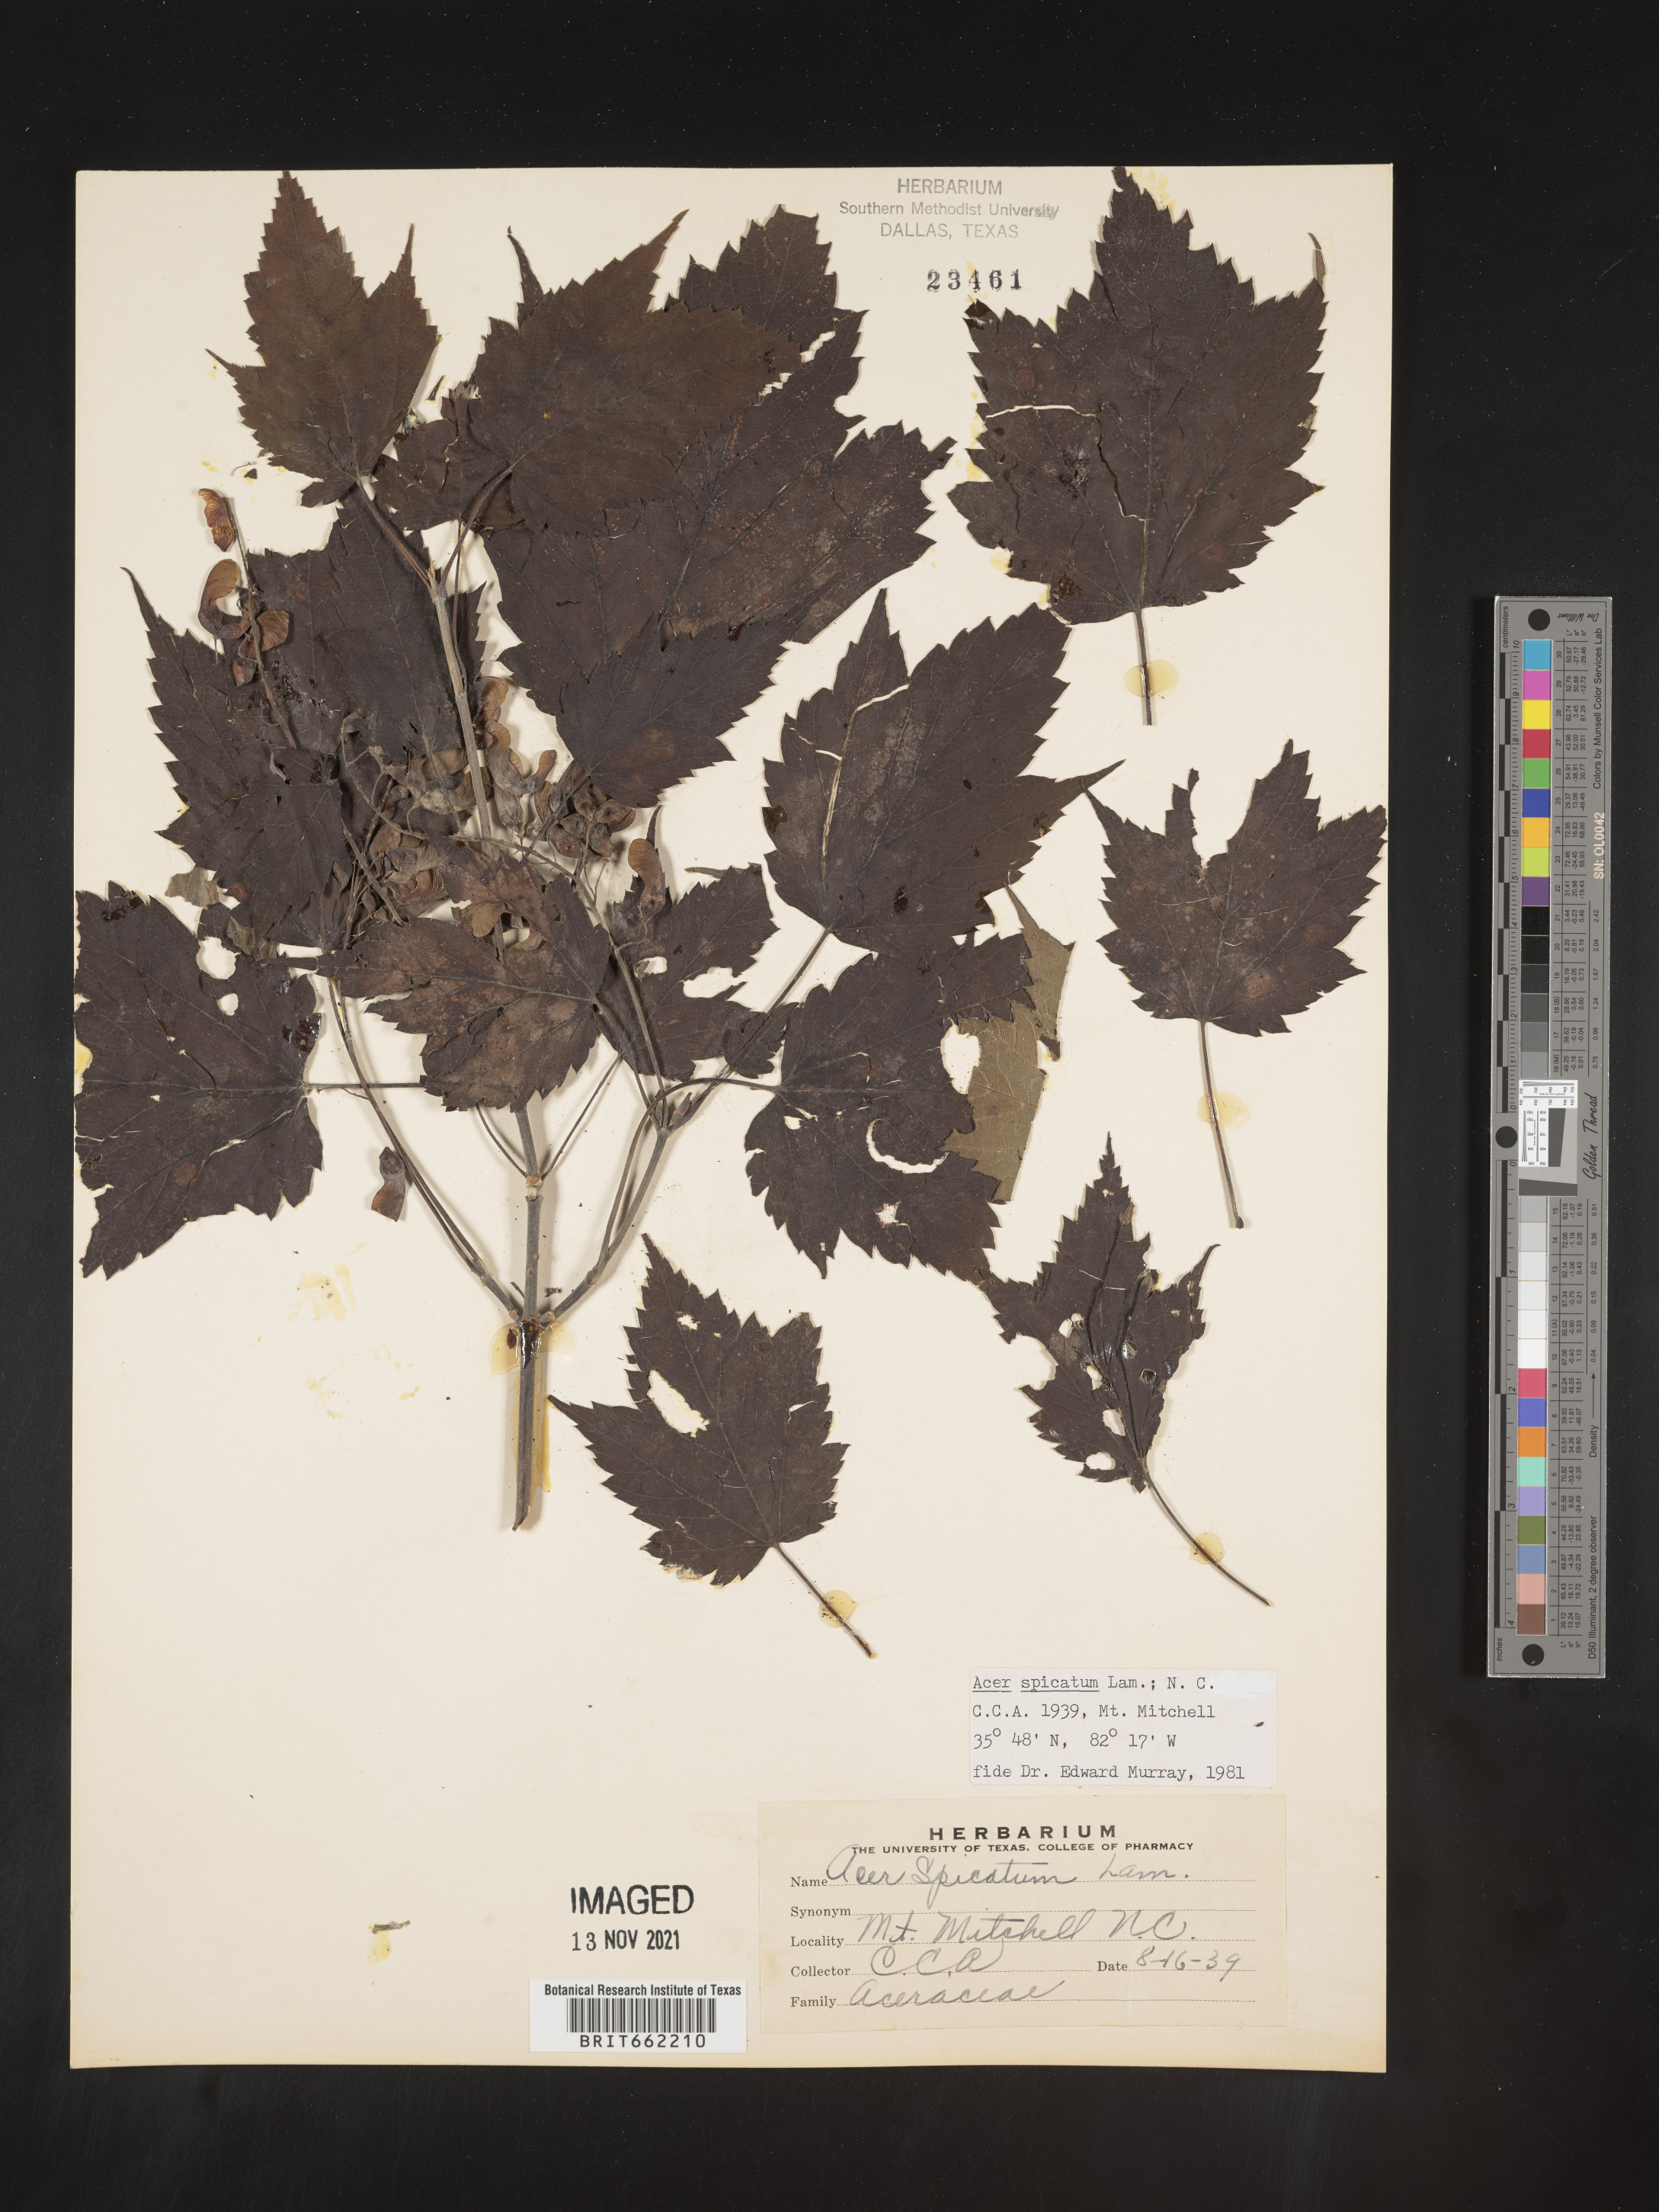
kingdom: Plantae
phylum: Tracheophyta
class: Magnoliopsida
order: Sapindales
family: Sapindaceae
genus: Acer
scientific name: Acer spicatum
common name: Mountain maple
